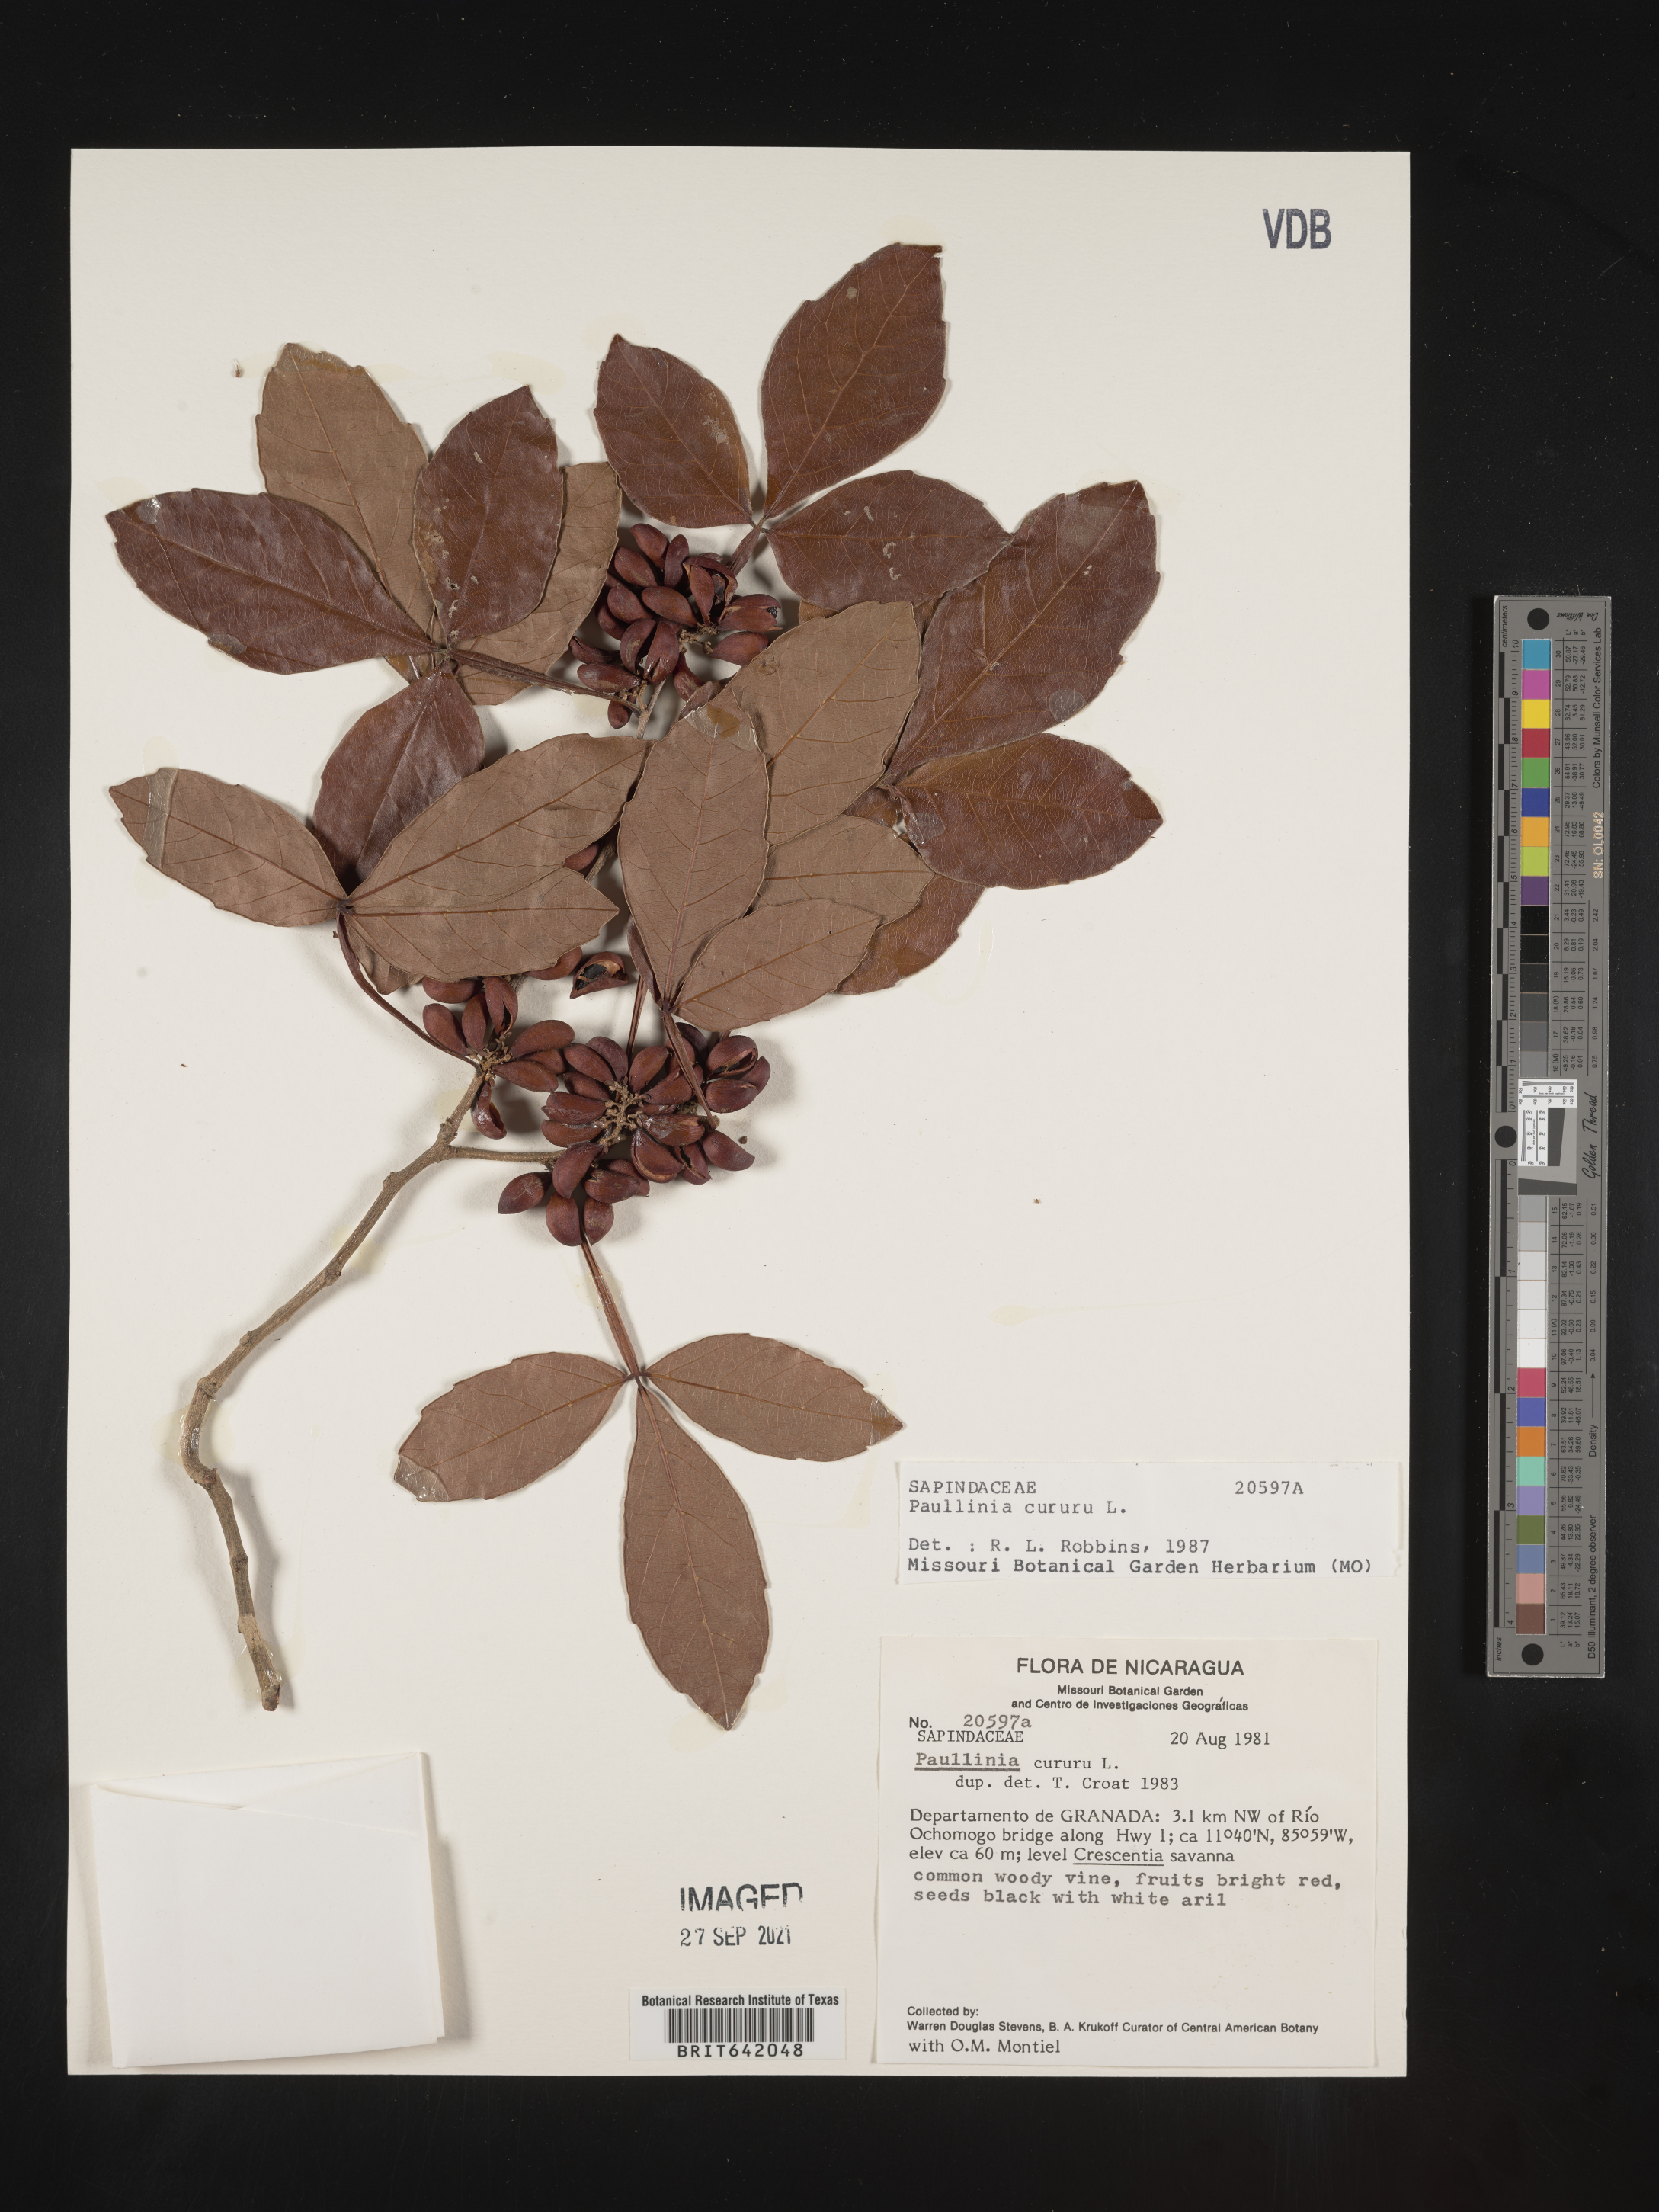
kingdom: Plantae
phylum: Tracheophyta
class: Magnoliopsida
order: Sapindales
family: Sapindaceae
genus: Paullinia
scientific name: Paullinia
